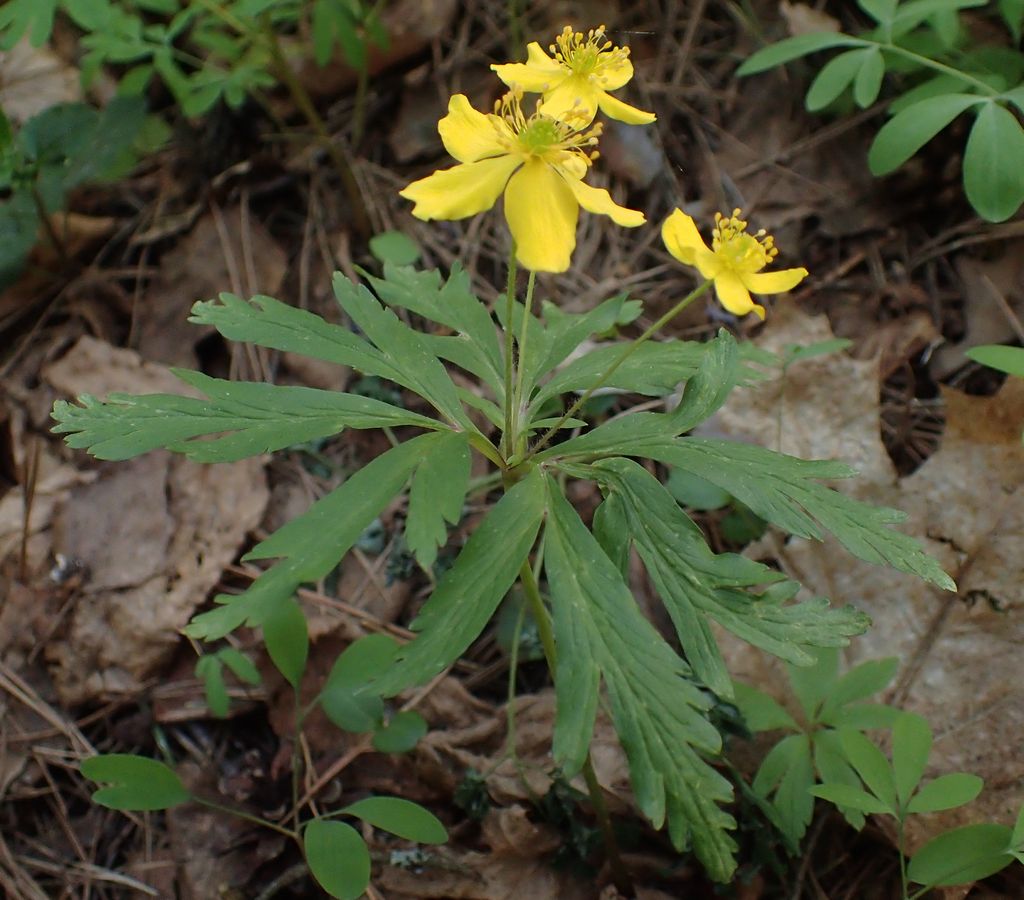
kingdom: Plantae
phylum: Tracheophyta
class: Magnoliopsida
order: Ranunculales
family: Ranunculaceae
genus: Anemone
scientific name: Anemone ranunculoides
